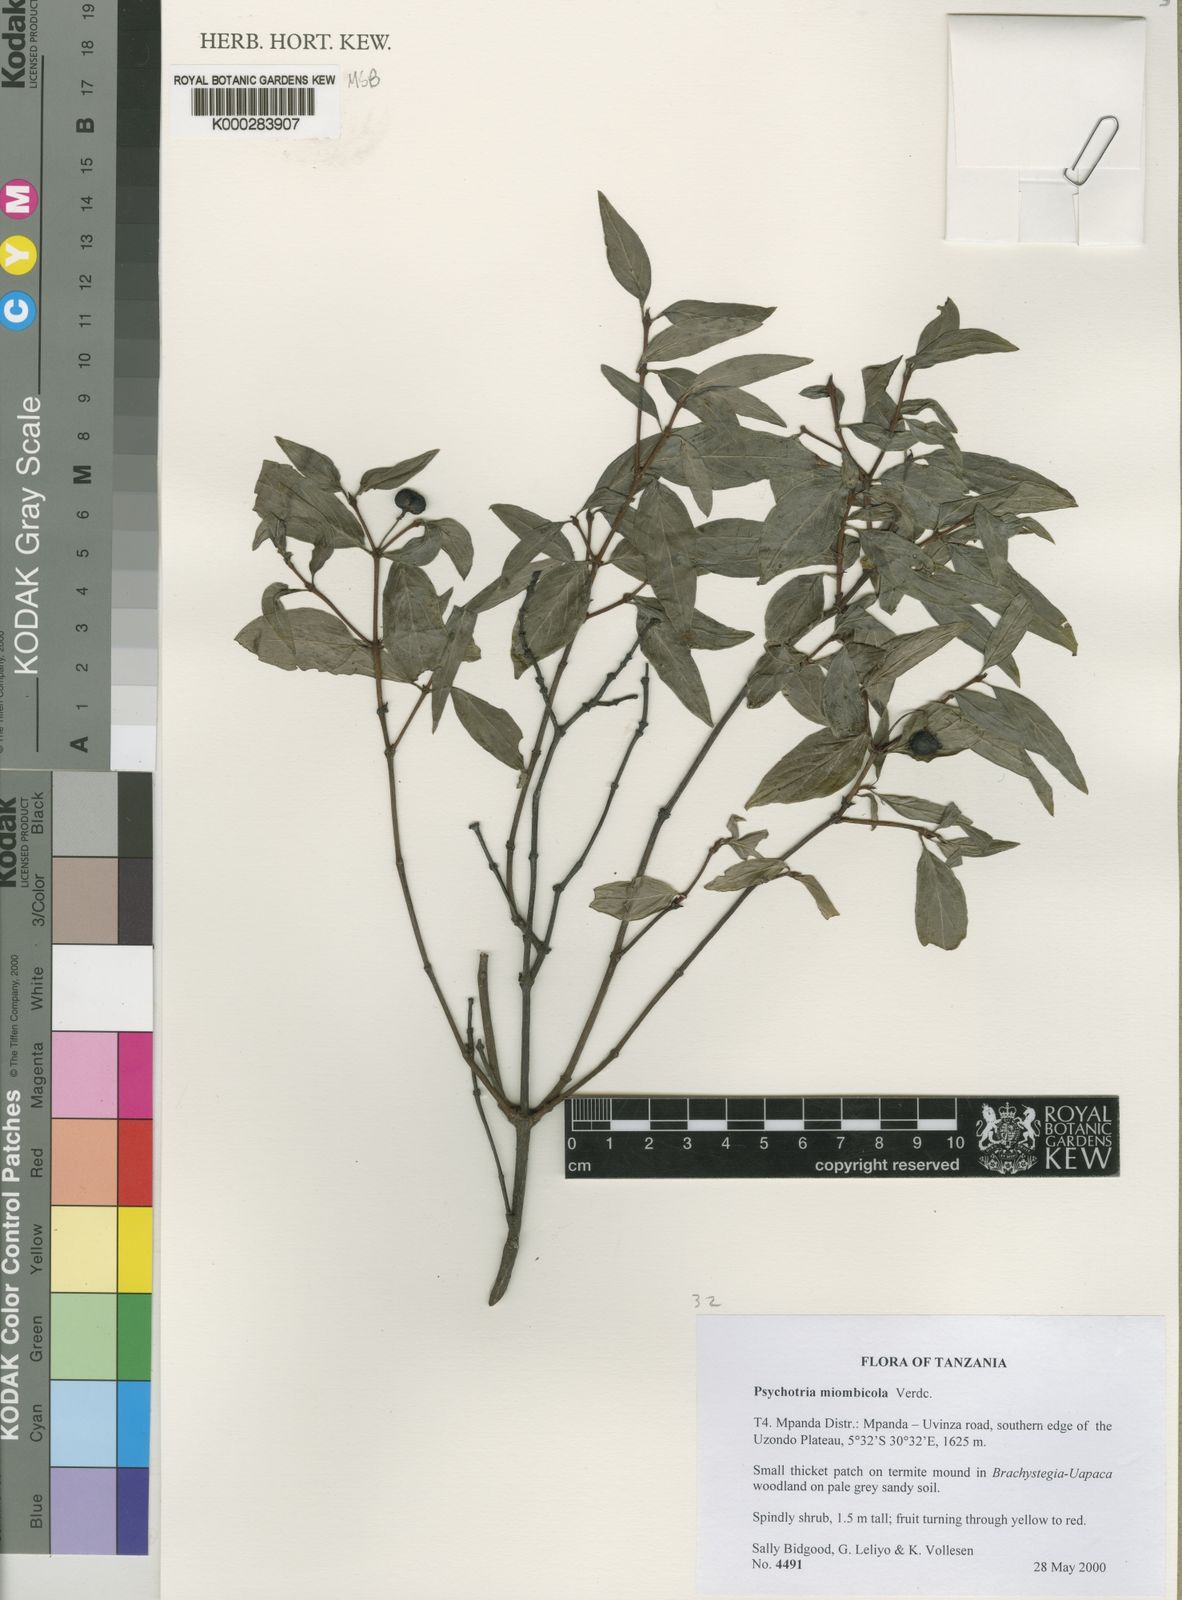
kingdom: Plantae
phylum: Tracheophyta
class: Magnoliopsida
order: Gentianales
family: Rubiaceae
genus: Psychotria
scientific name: Psychotria miombicola
